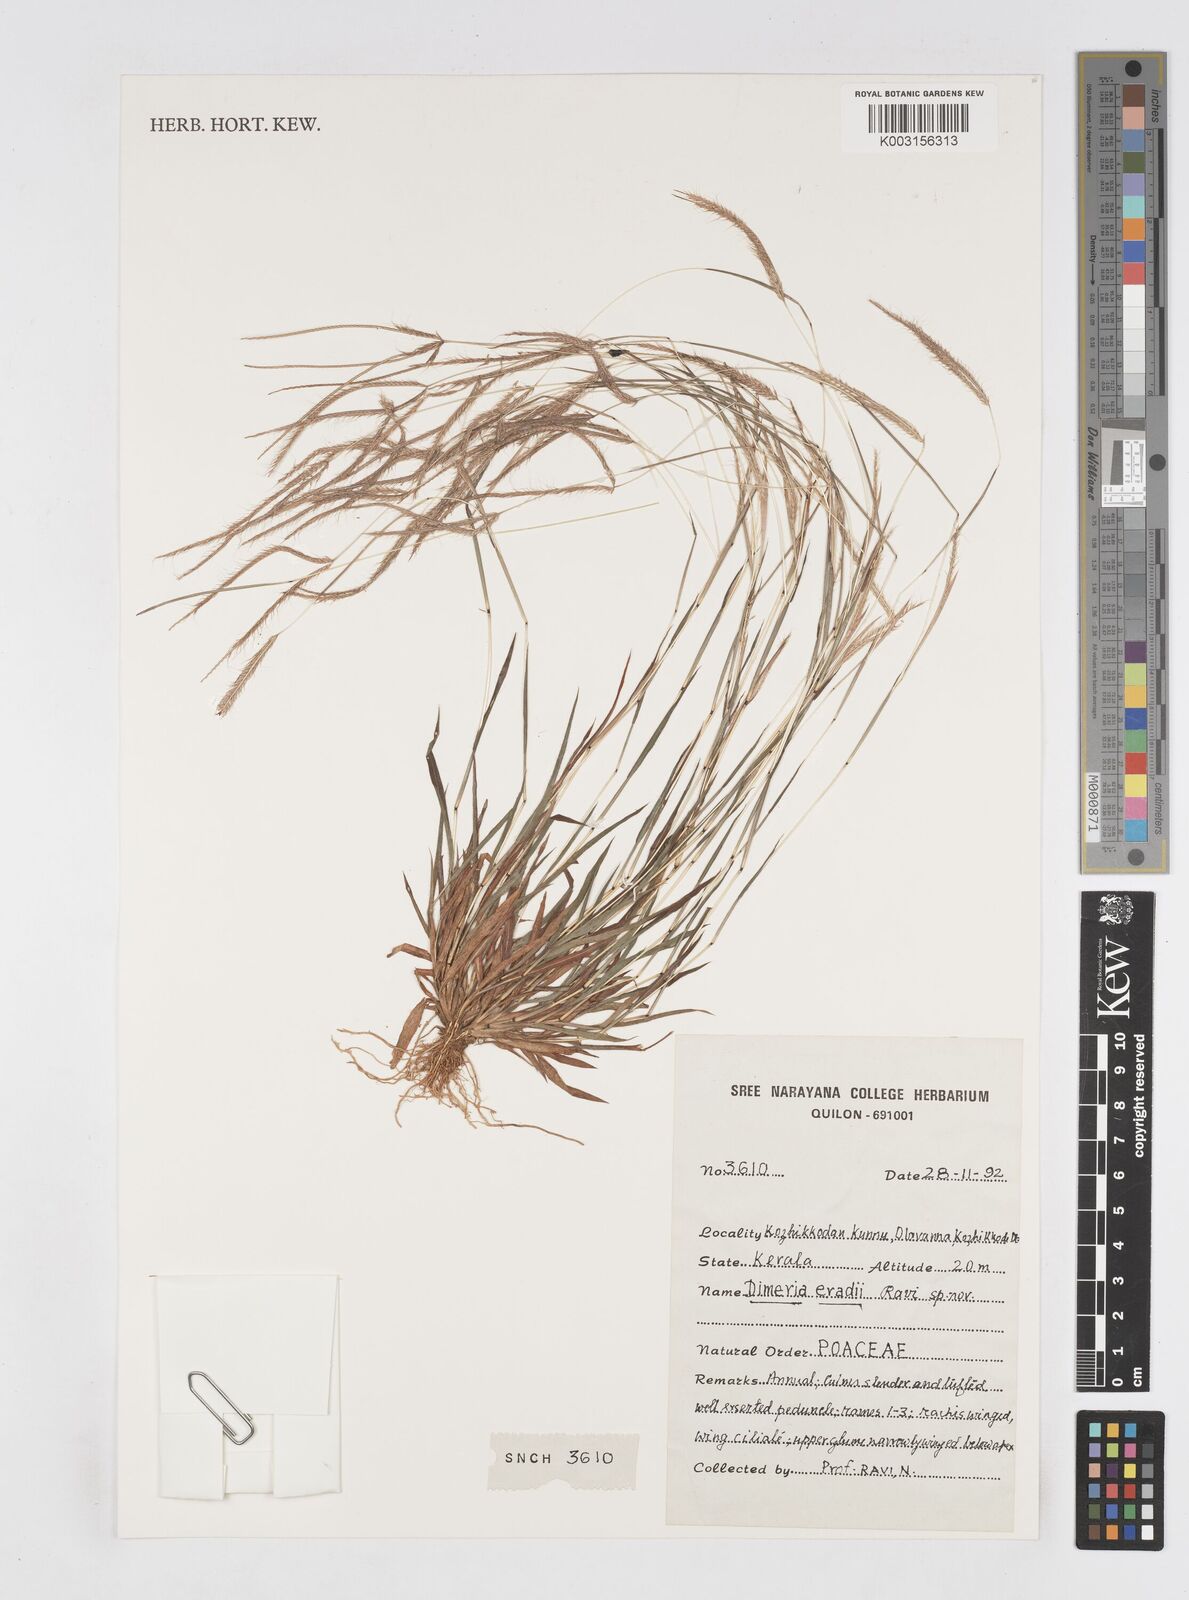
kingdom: Plantae
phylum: Tracheophyta
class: Liliopsida
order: Poales
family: Poaceae
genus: Eriachne
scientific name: Eriachne
